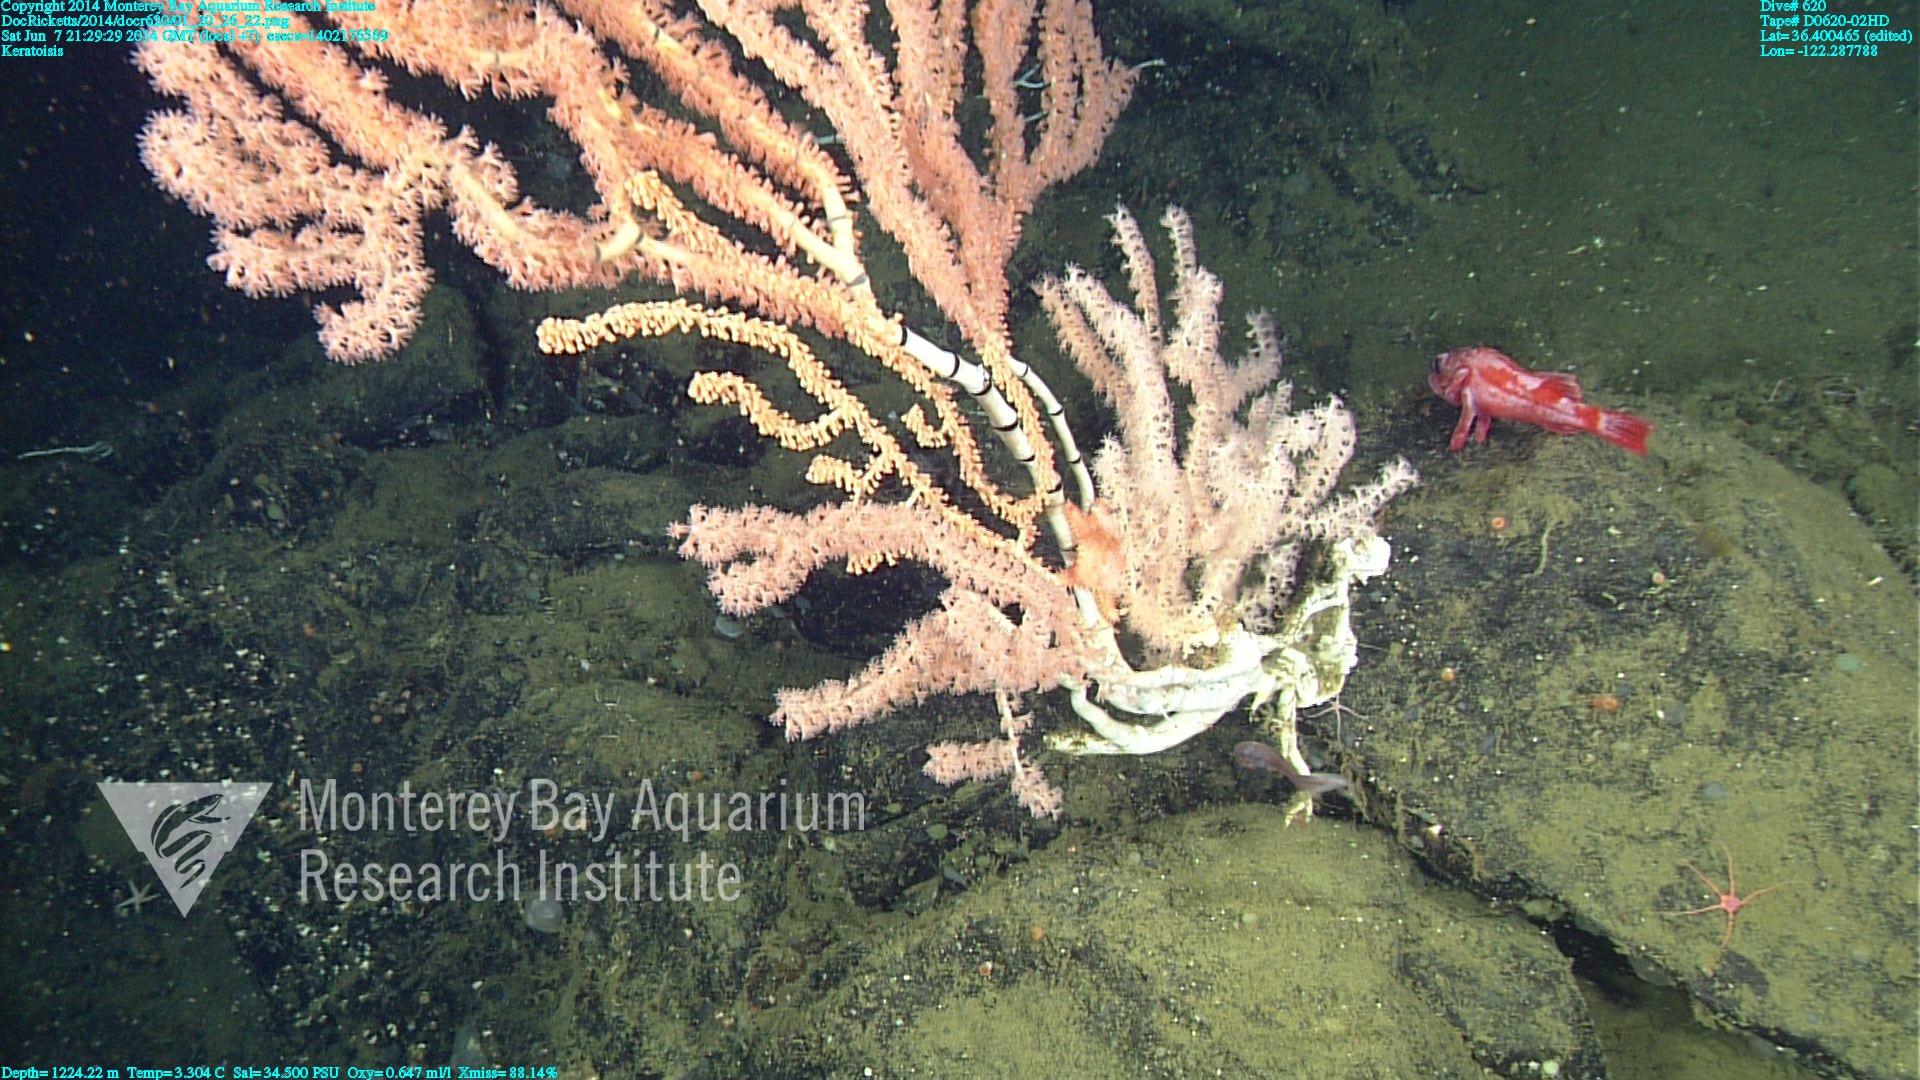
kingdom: Animalia
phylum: Cnidaria
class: Anthozoa
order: Scleralcyonacea
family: Keratoisididae
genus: Keratoisis
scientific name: Keratoisis
